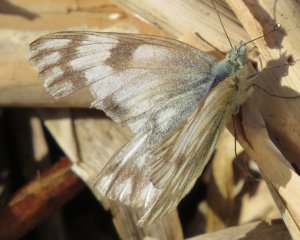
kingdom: Animalia
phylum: Arthropoda
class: Insecta
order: Lepidoptera
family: Pieridae
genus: Pontia
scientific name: Pontia protodice
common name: Checkered White
